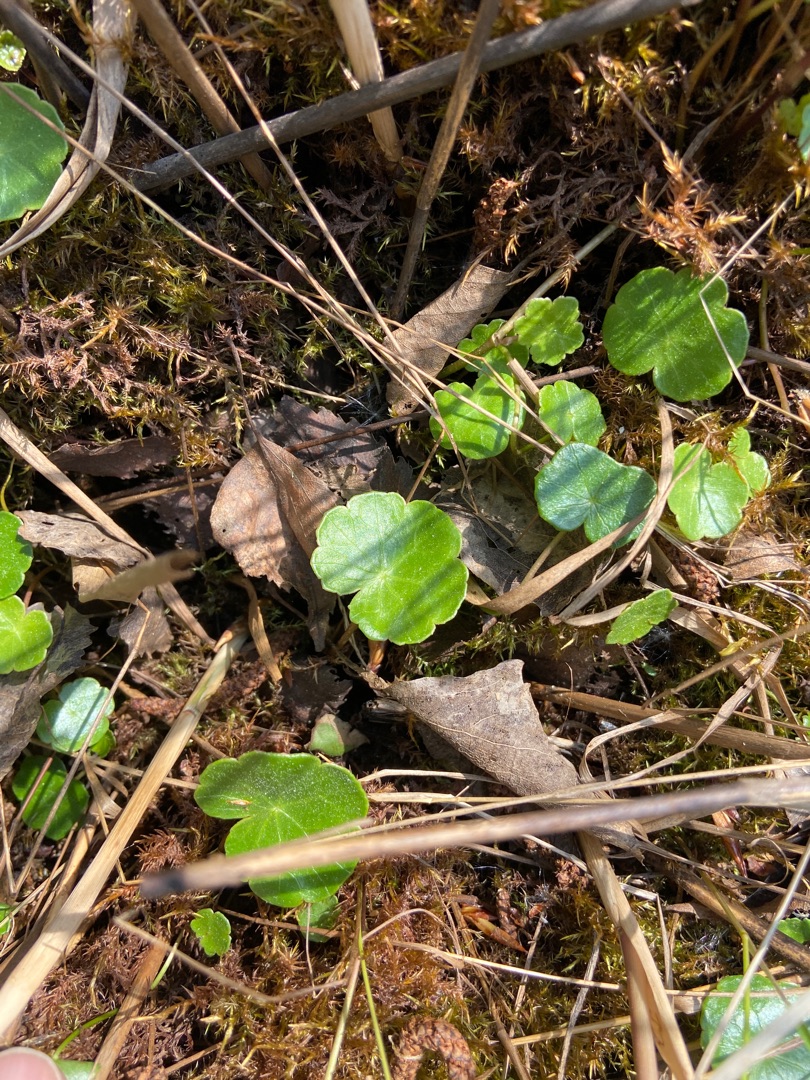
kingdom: Plantae
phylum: Tracheophyta
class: Magnoliopsida
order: Apiales
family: Araliaceae
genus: Hydrocotyle
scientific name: Hydrocotyle vulgaris
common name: Vandnavle
